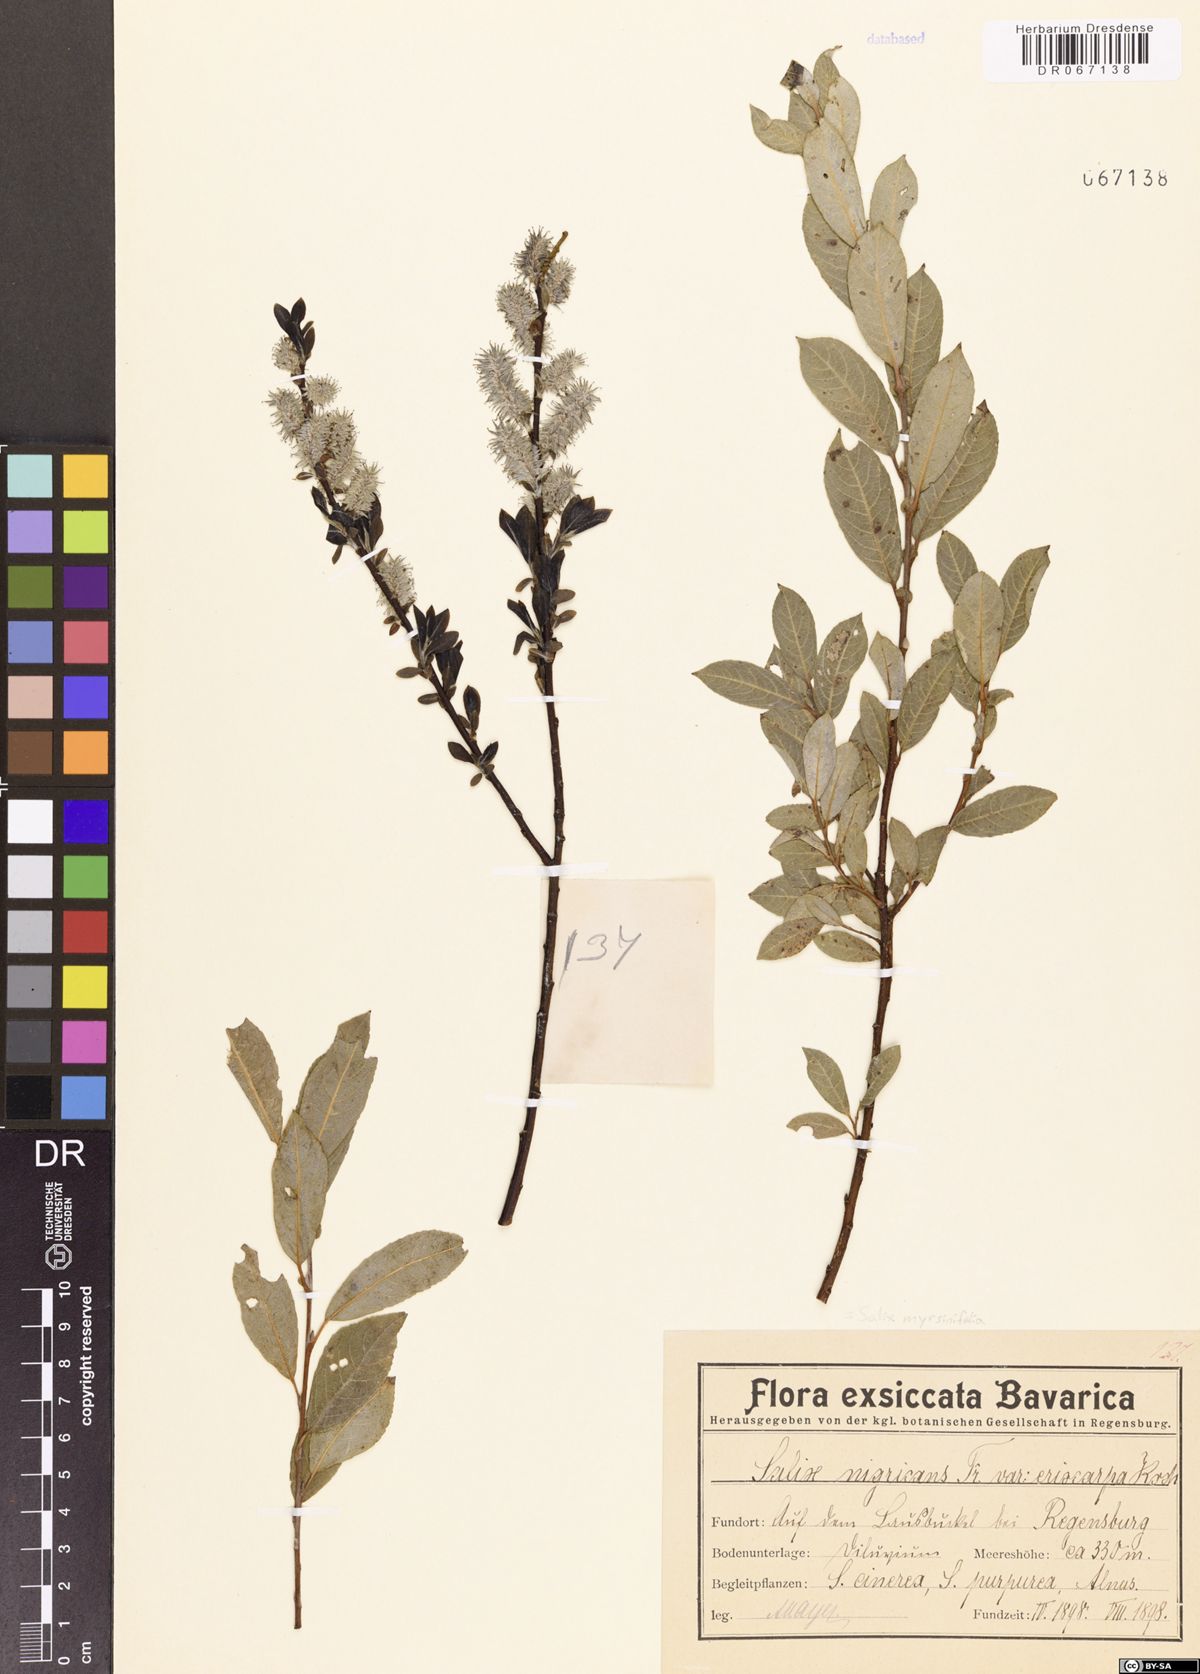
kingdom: Plantae
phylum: Tracheophyta
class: Magnoliopsida
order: Malpighiales
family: Salicaceae
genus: Salix
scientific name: Salix myrsinifolia
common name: Dark-leaved willow
